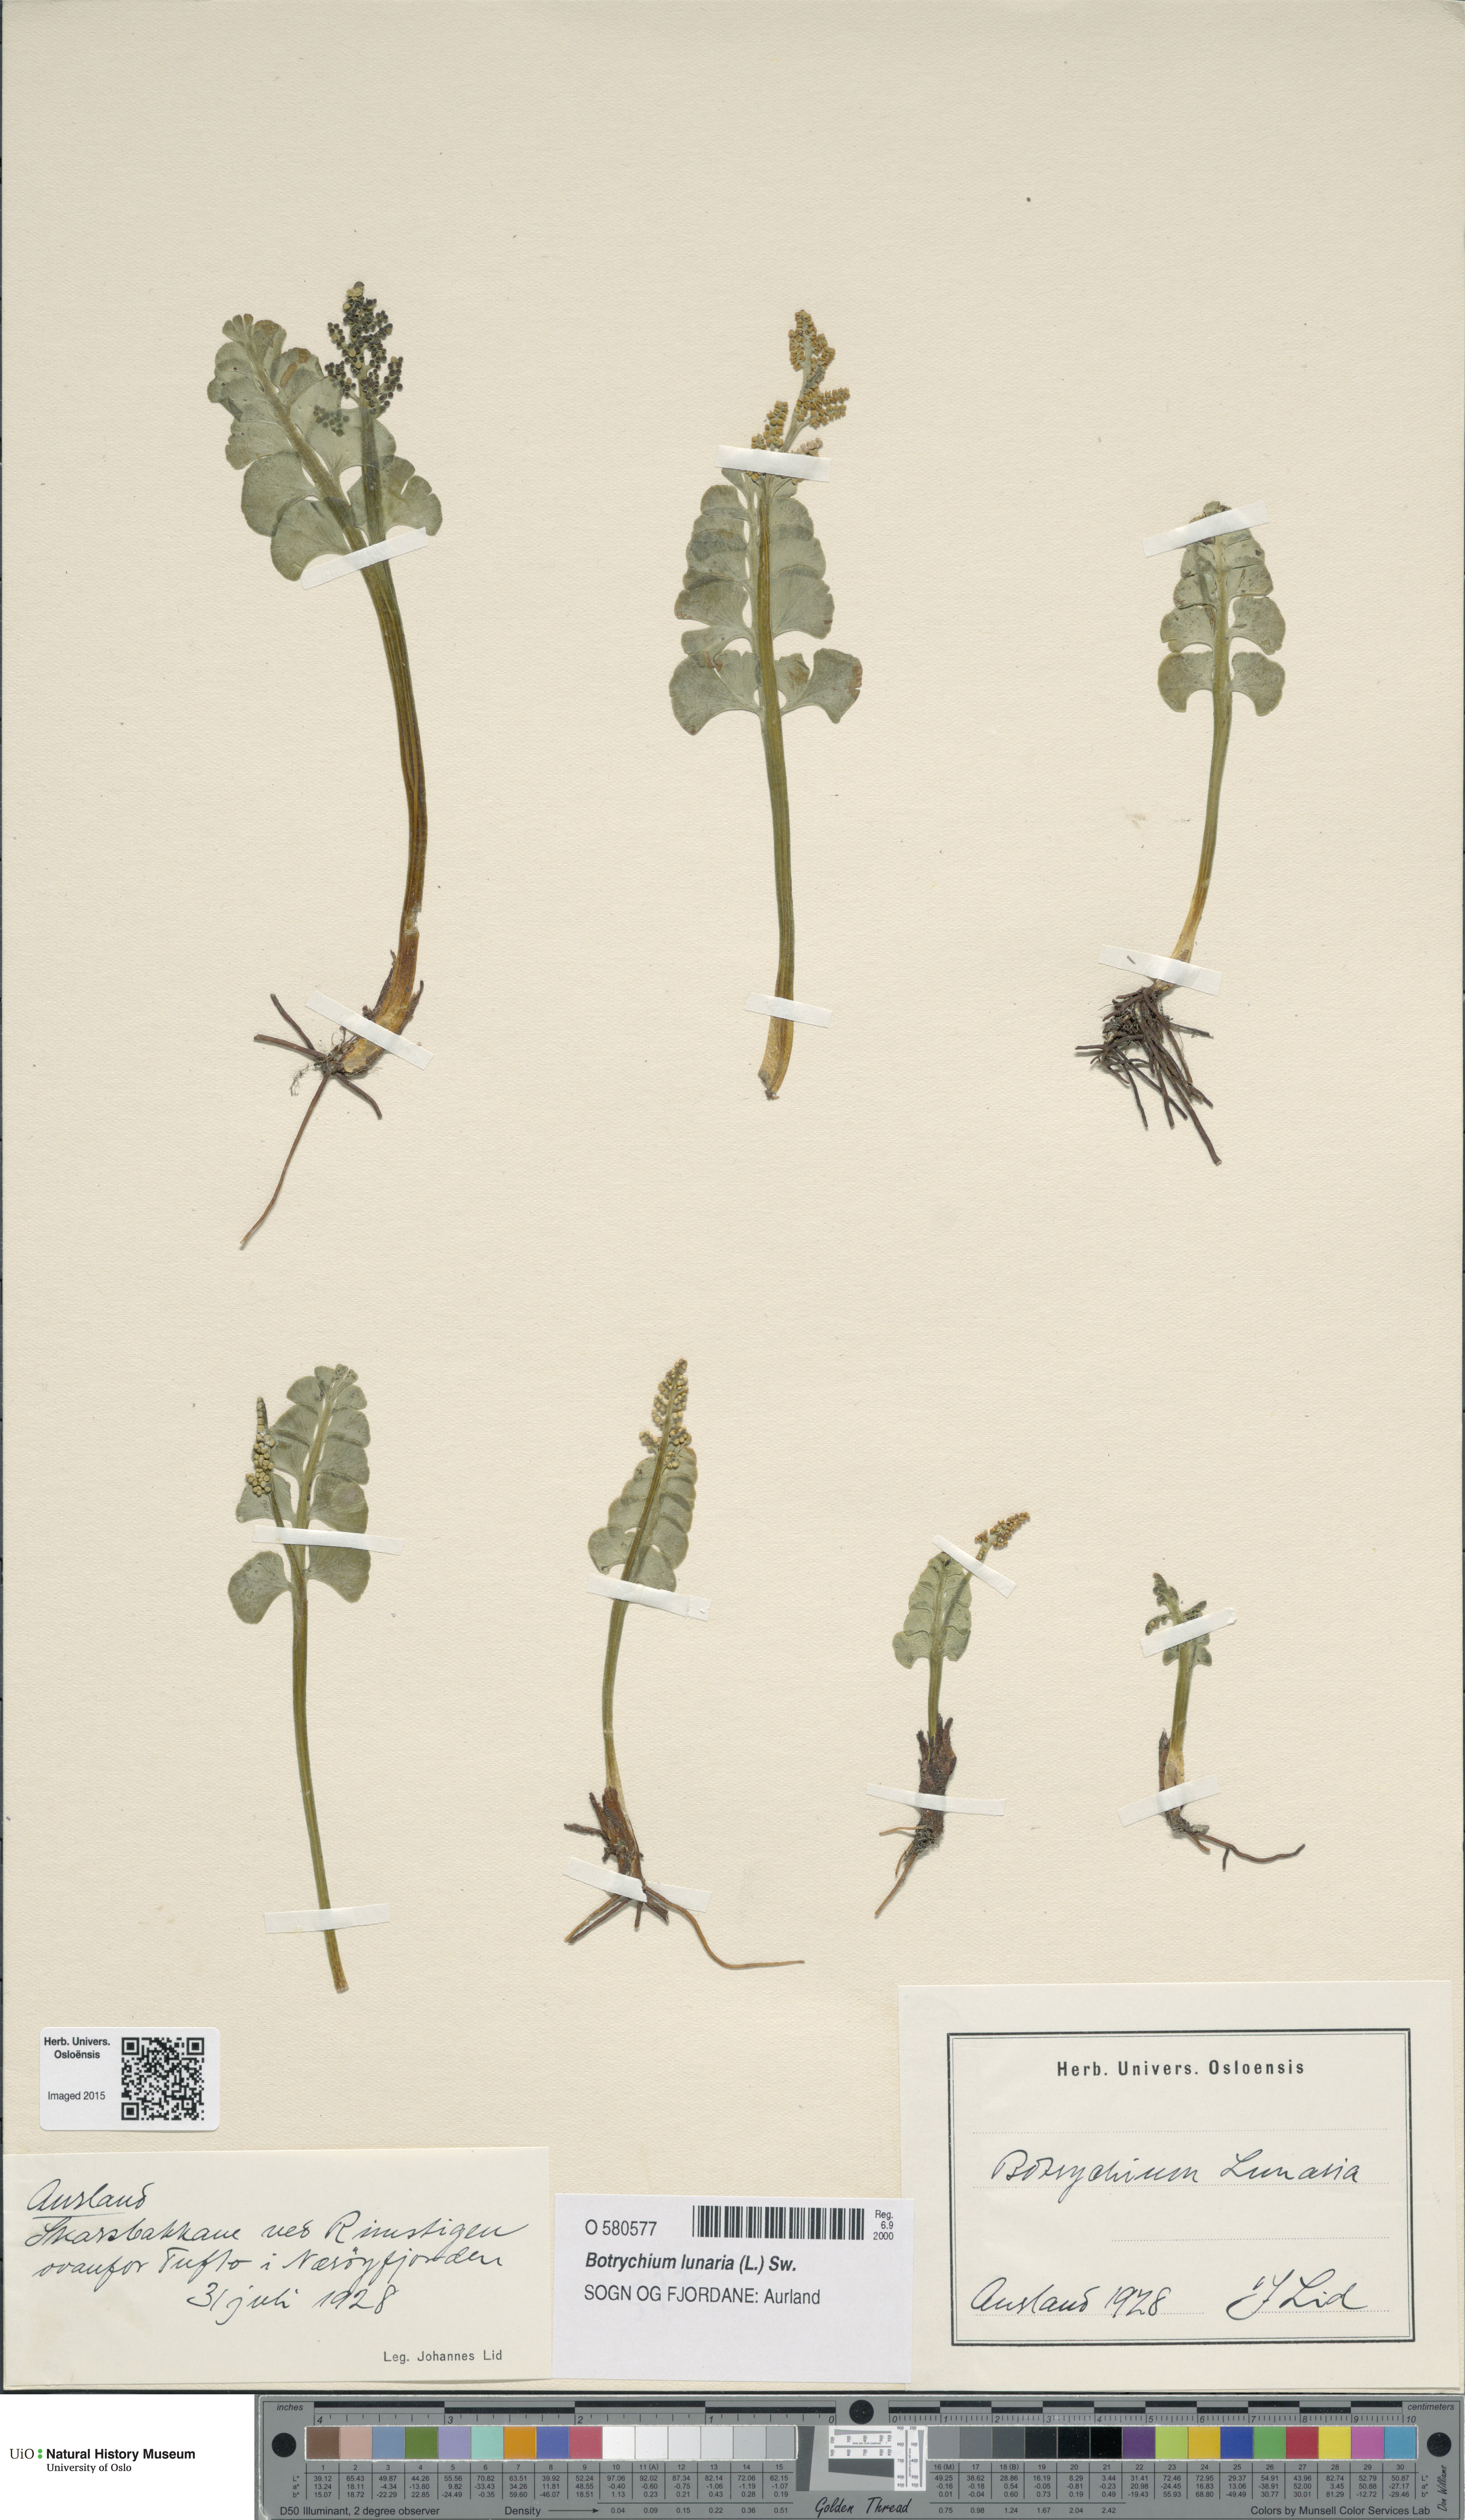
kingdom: Plantae
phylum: Tracheophyta
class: Polypodiopsida
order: Ophioglossales
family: Ophioglossaceae
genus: Botrychium
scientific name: Botrychium lunaria
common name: Moonwort
